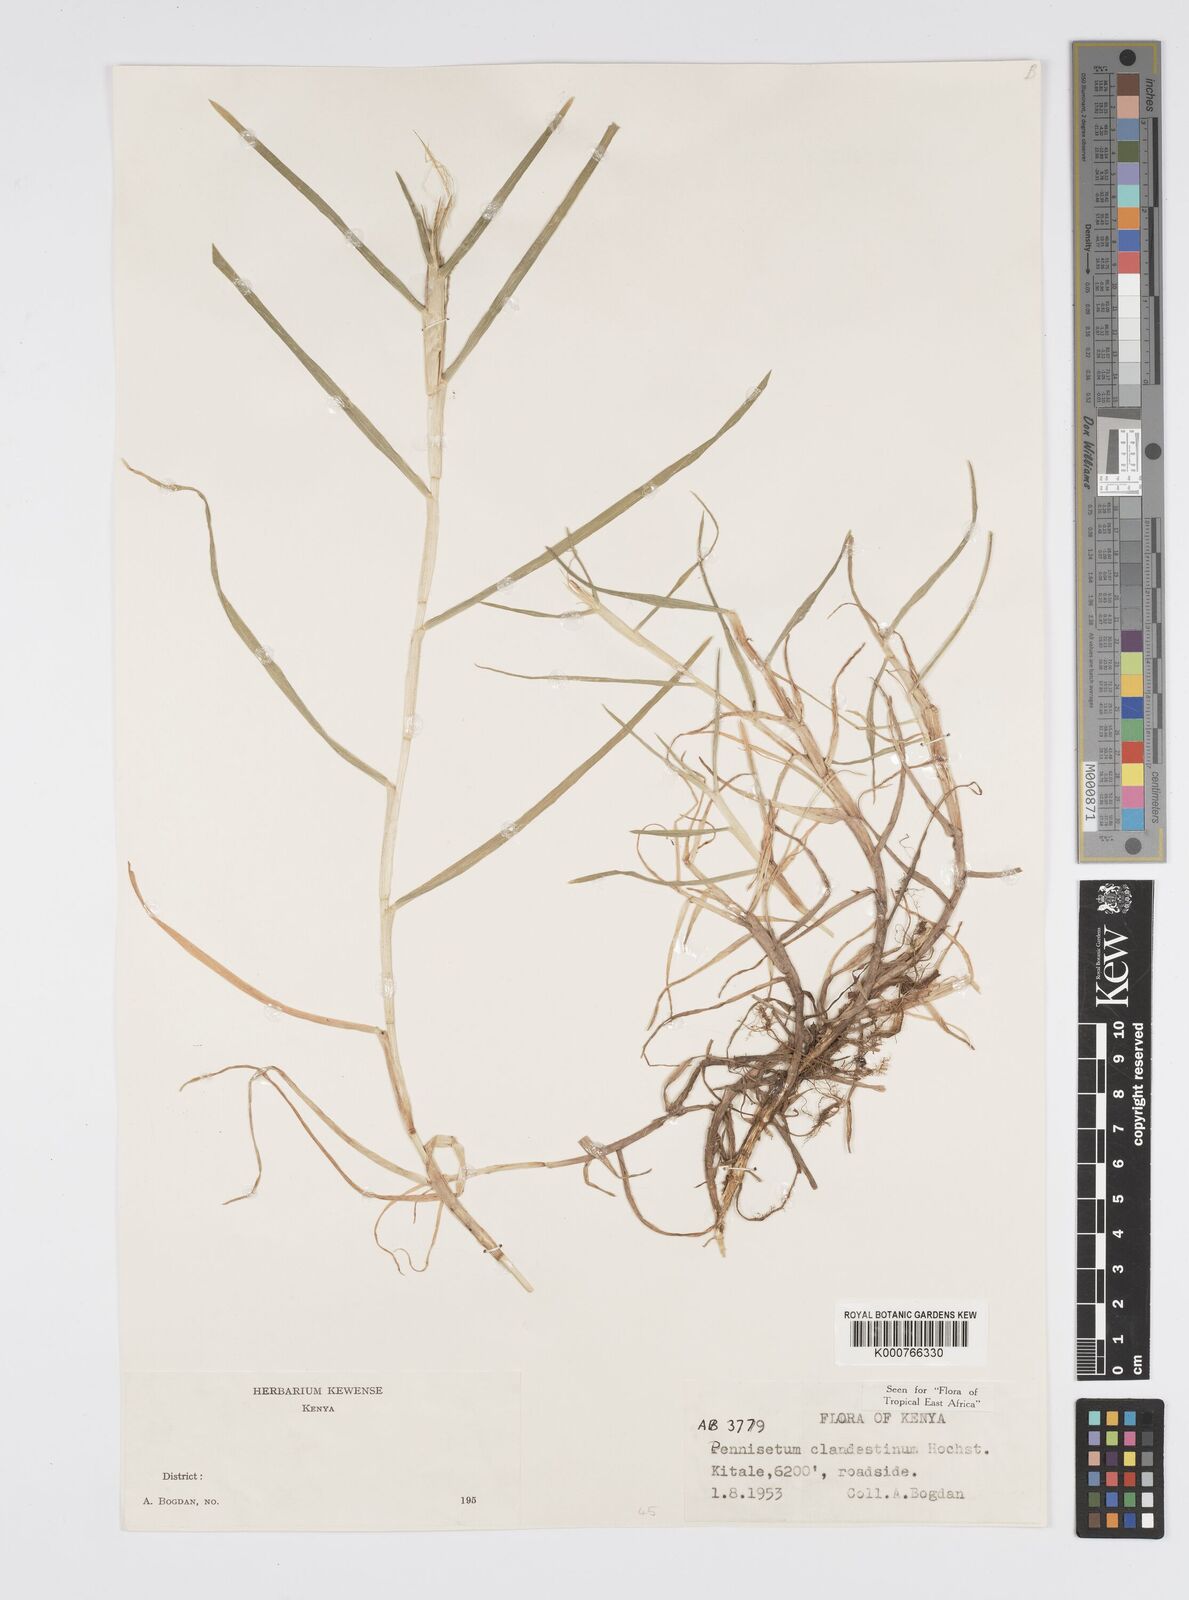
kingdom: Plantae
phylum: Tracheophyta
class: Liliopsida
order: Poales
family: Poaceae
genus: Cenchrus
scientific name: Cenchrus clandestinus
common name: Kikuyugrass
